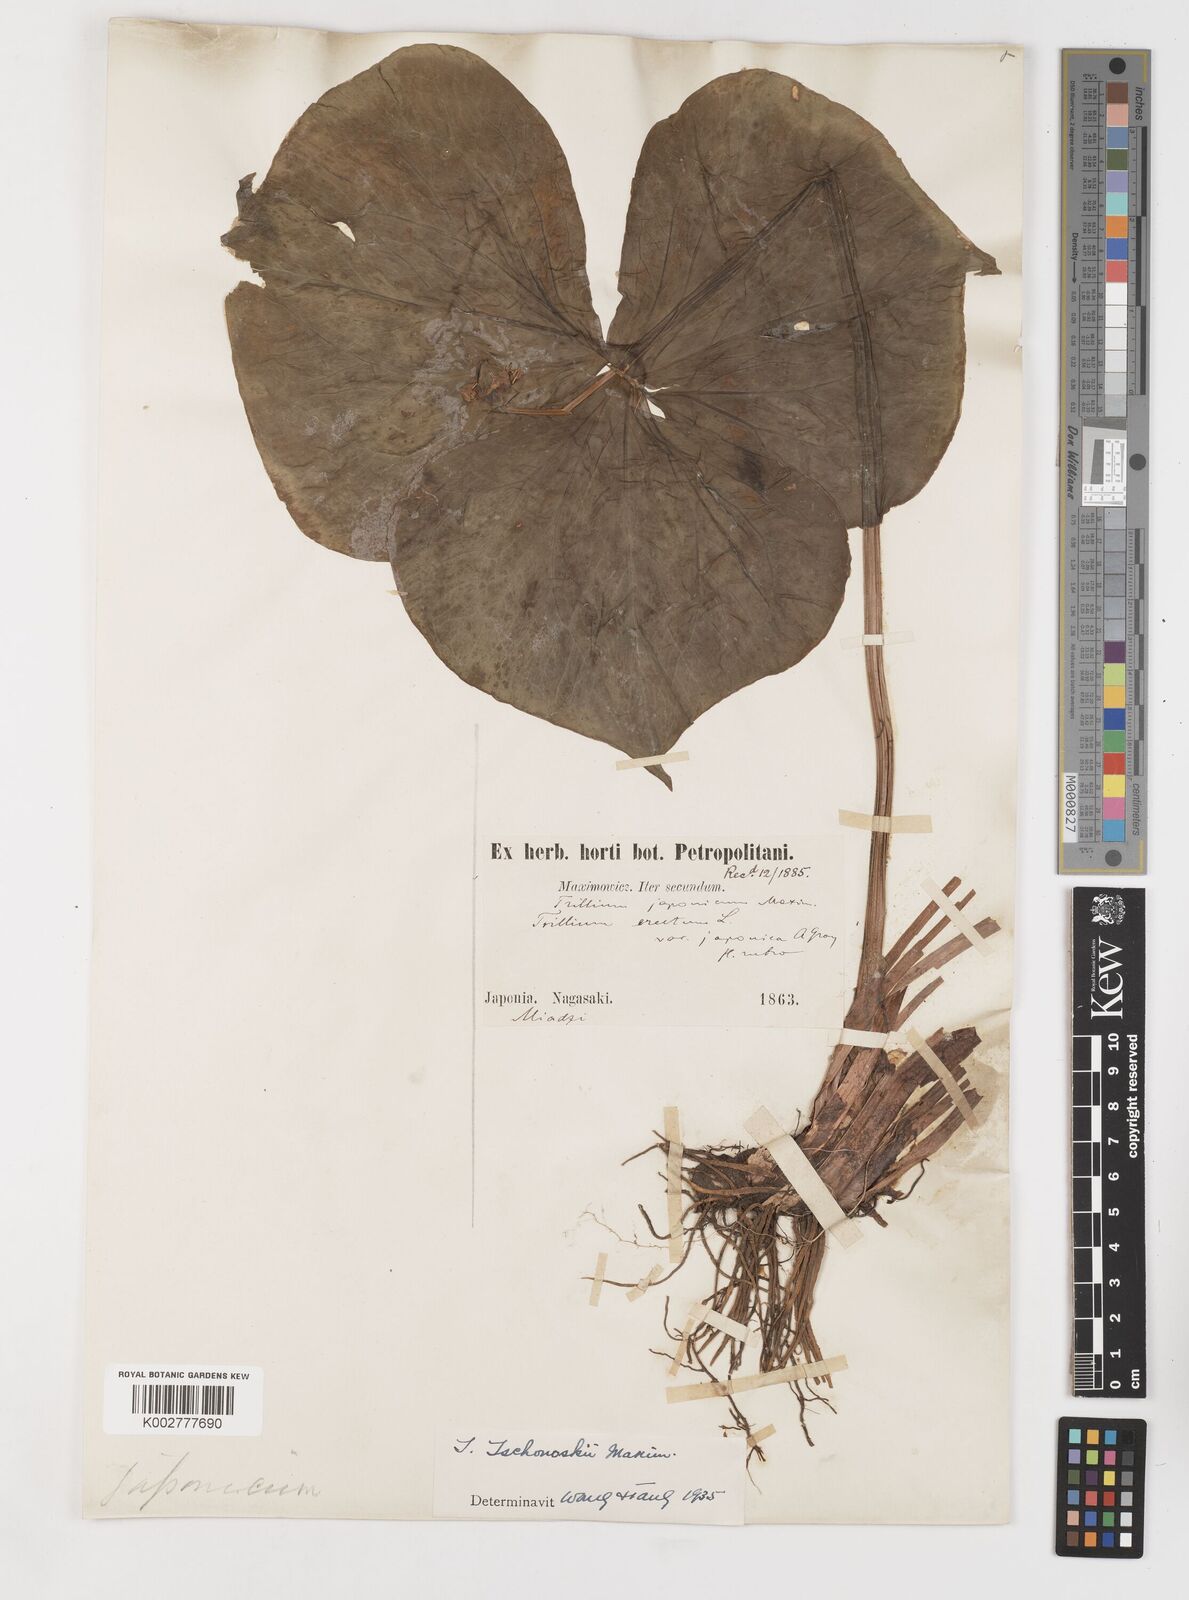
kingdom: Plantae
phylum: Tracheophyta
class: Liliopsida
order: Liliales
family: Melanthiaceae
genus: Trillium
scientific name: Trillium tschonoskii
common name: A pearl on head
